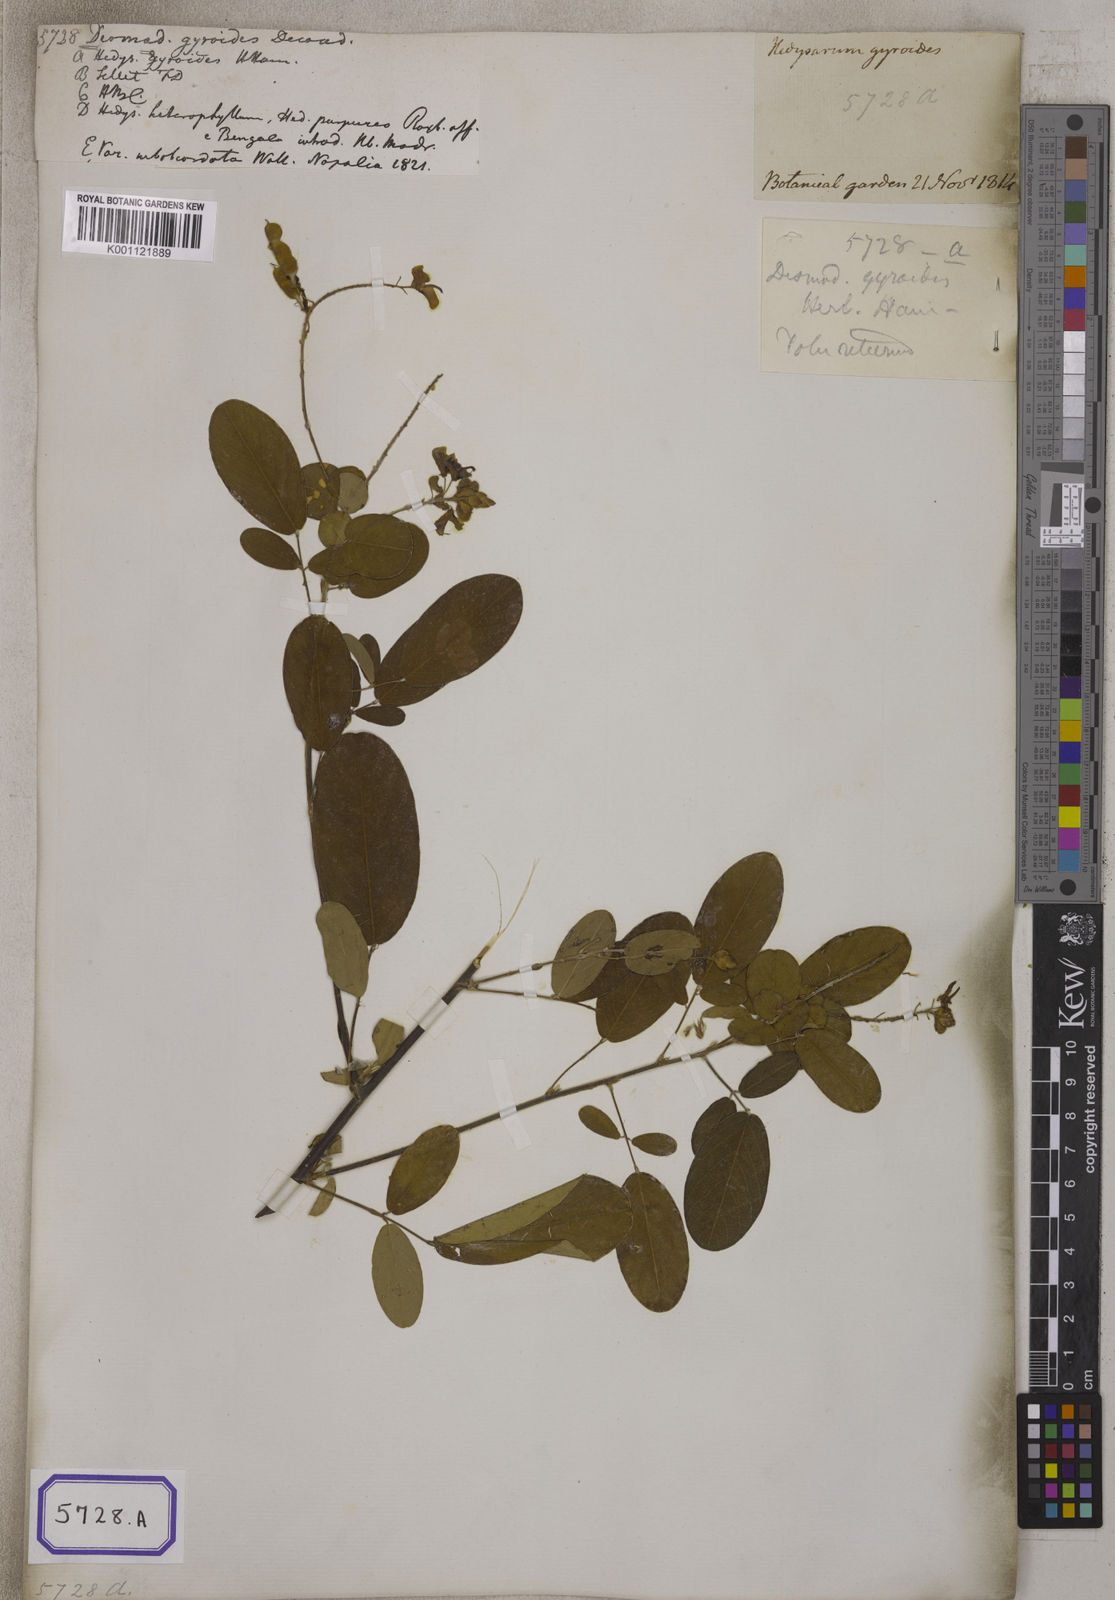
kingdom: Plantae
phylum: Tracheophyta
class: Magnoliopsida
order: Fabales
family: Fabaceae
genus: Codariocalyx
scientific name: Codariocalyx gyroides
